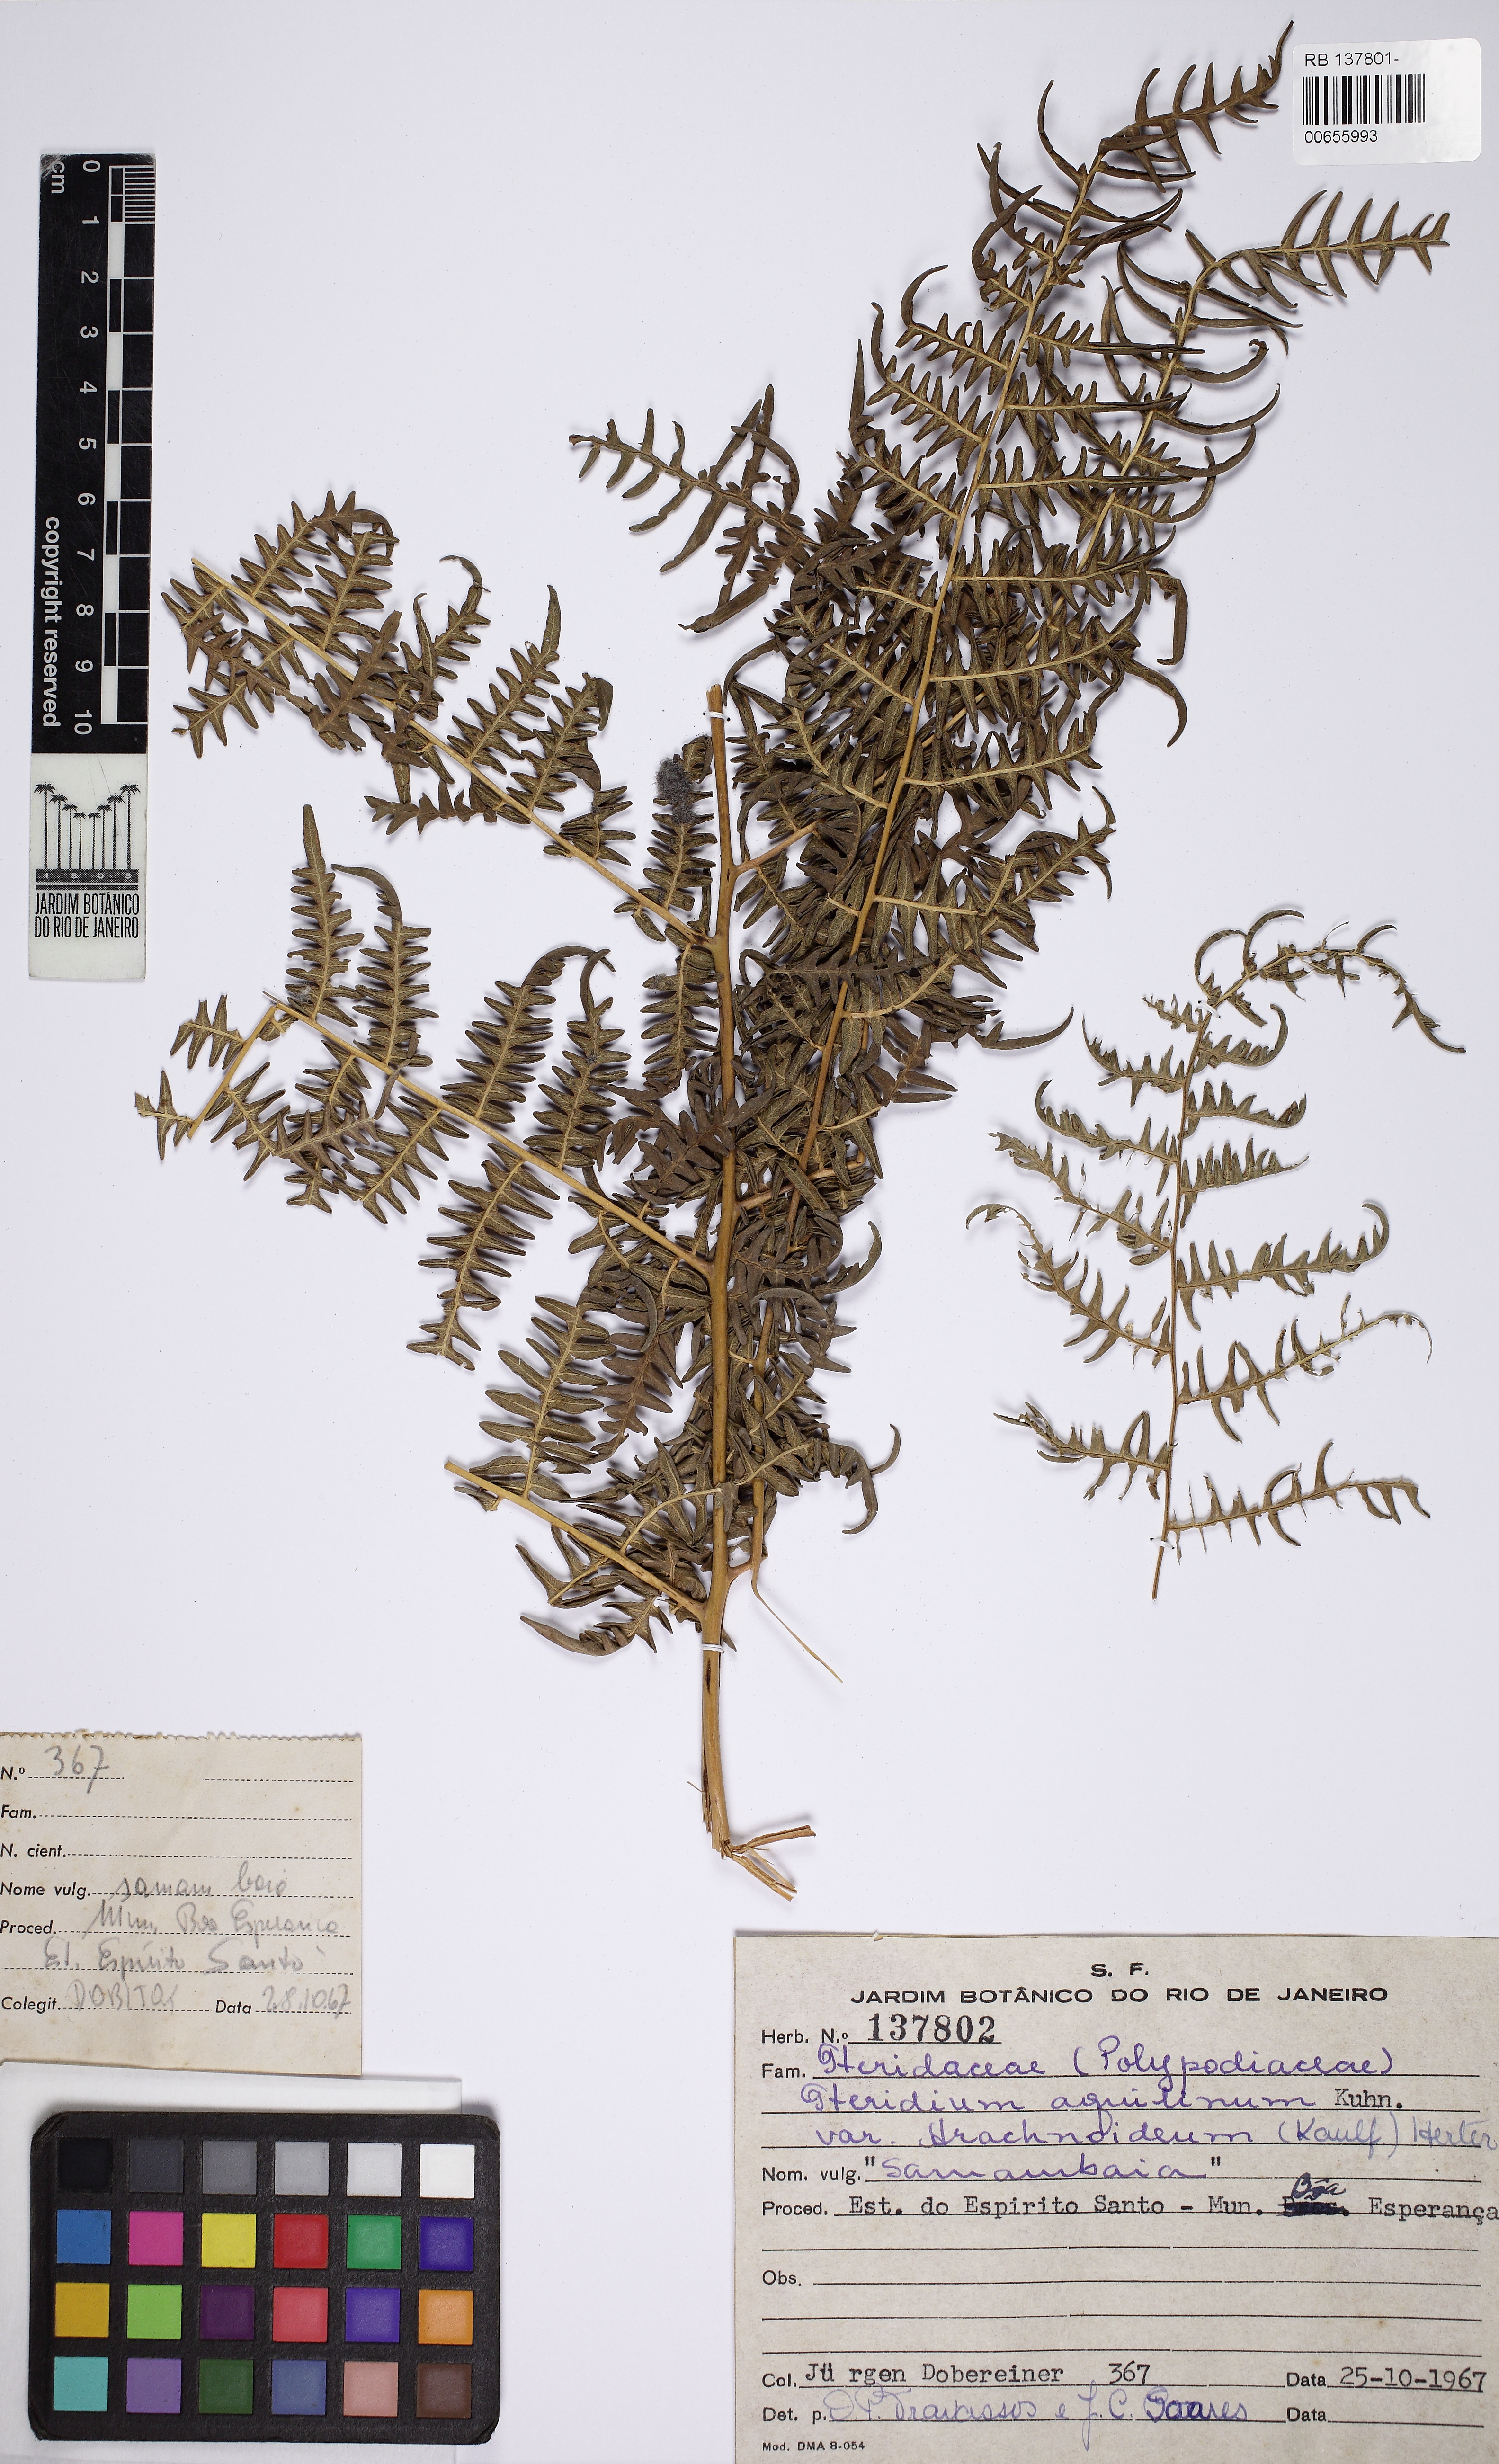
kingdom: Plantae
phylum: Tracheophyta
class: Polypodiopsida
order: Polypodiales
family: Dennstaedtiaceae
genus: Pteridium
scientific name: Pteridium esculentum
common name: Bracken fern
